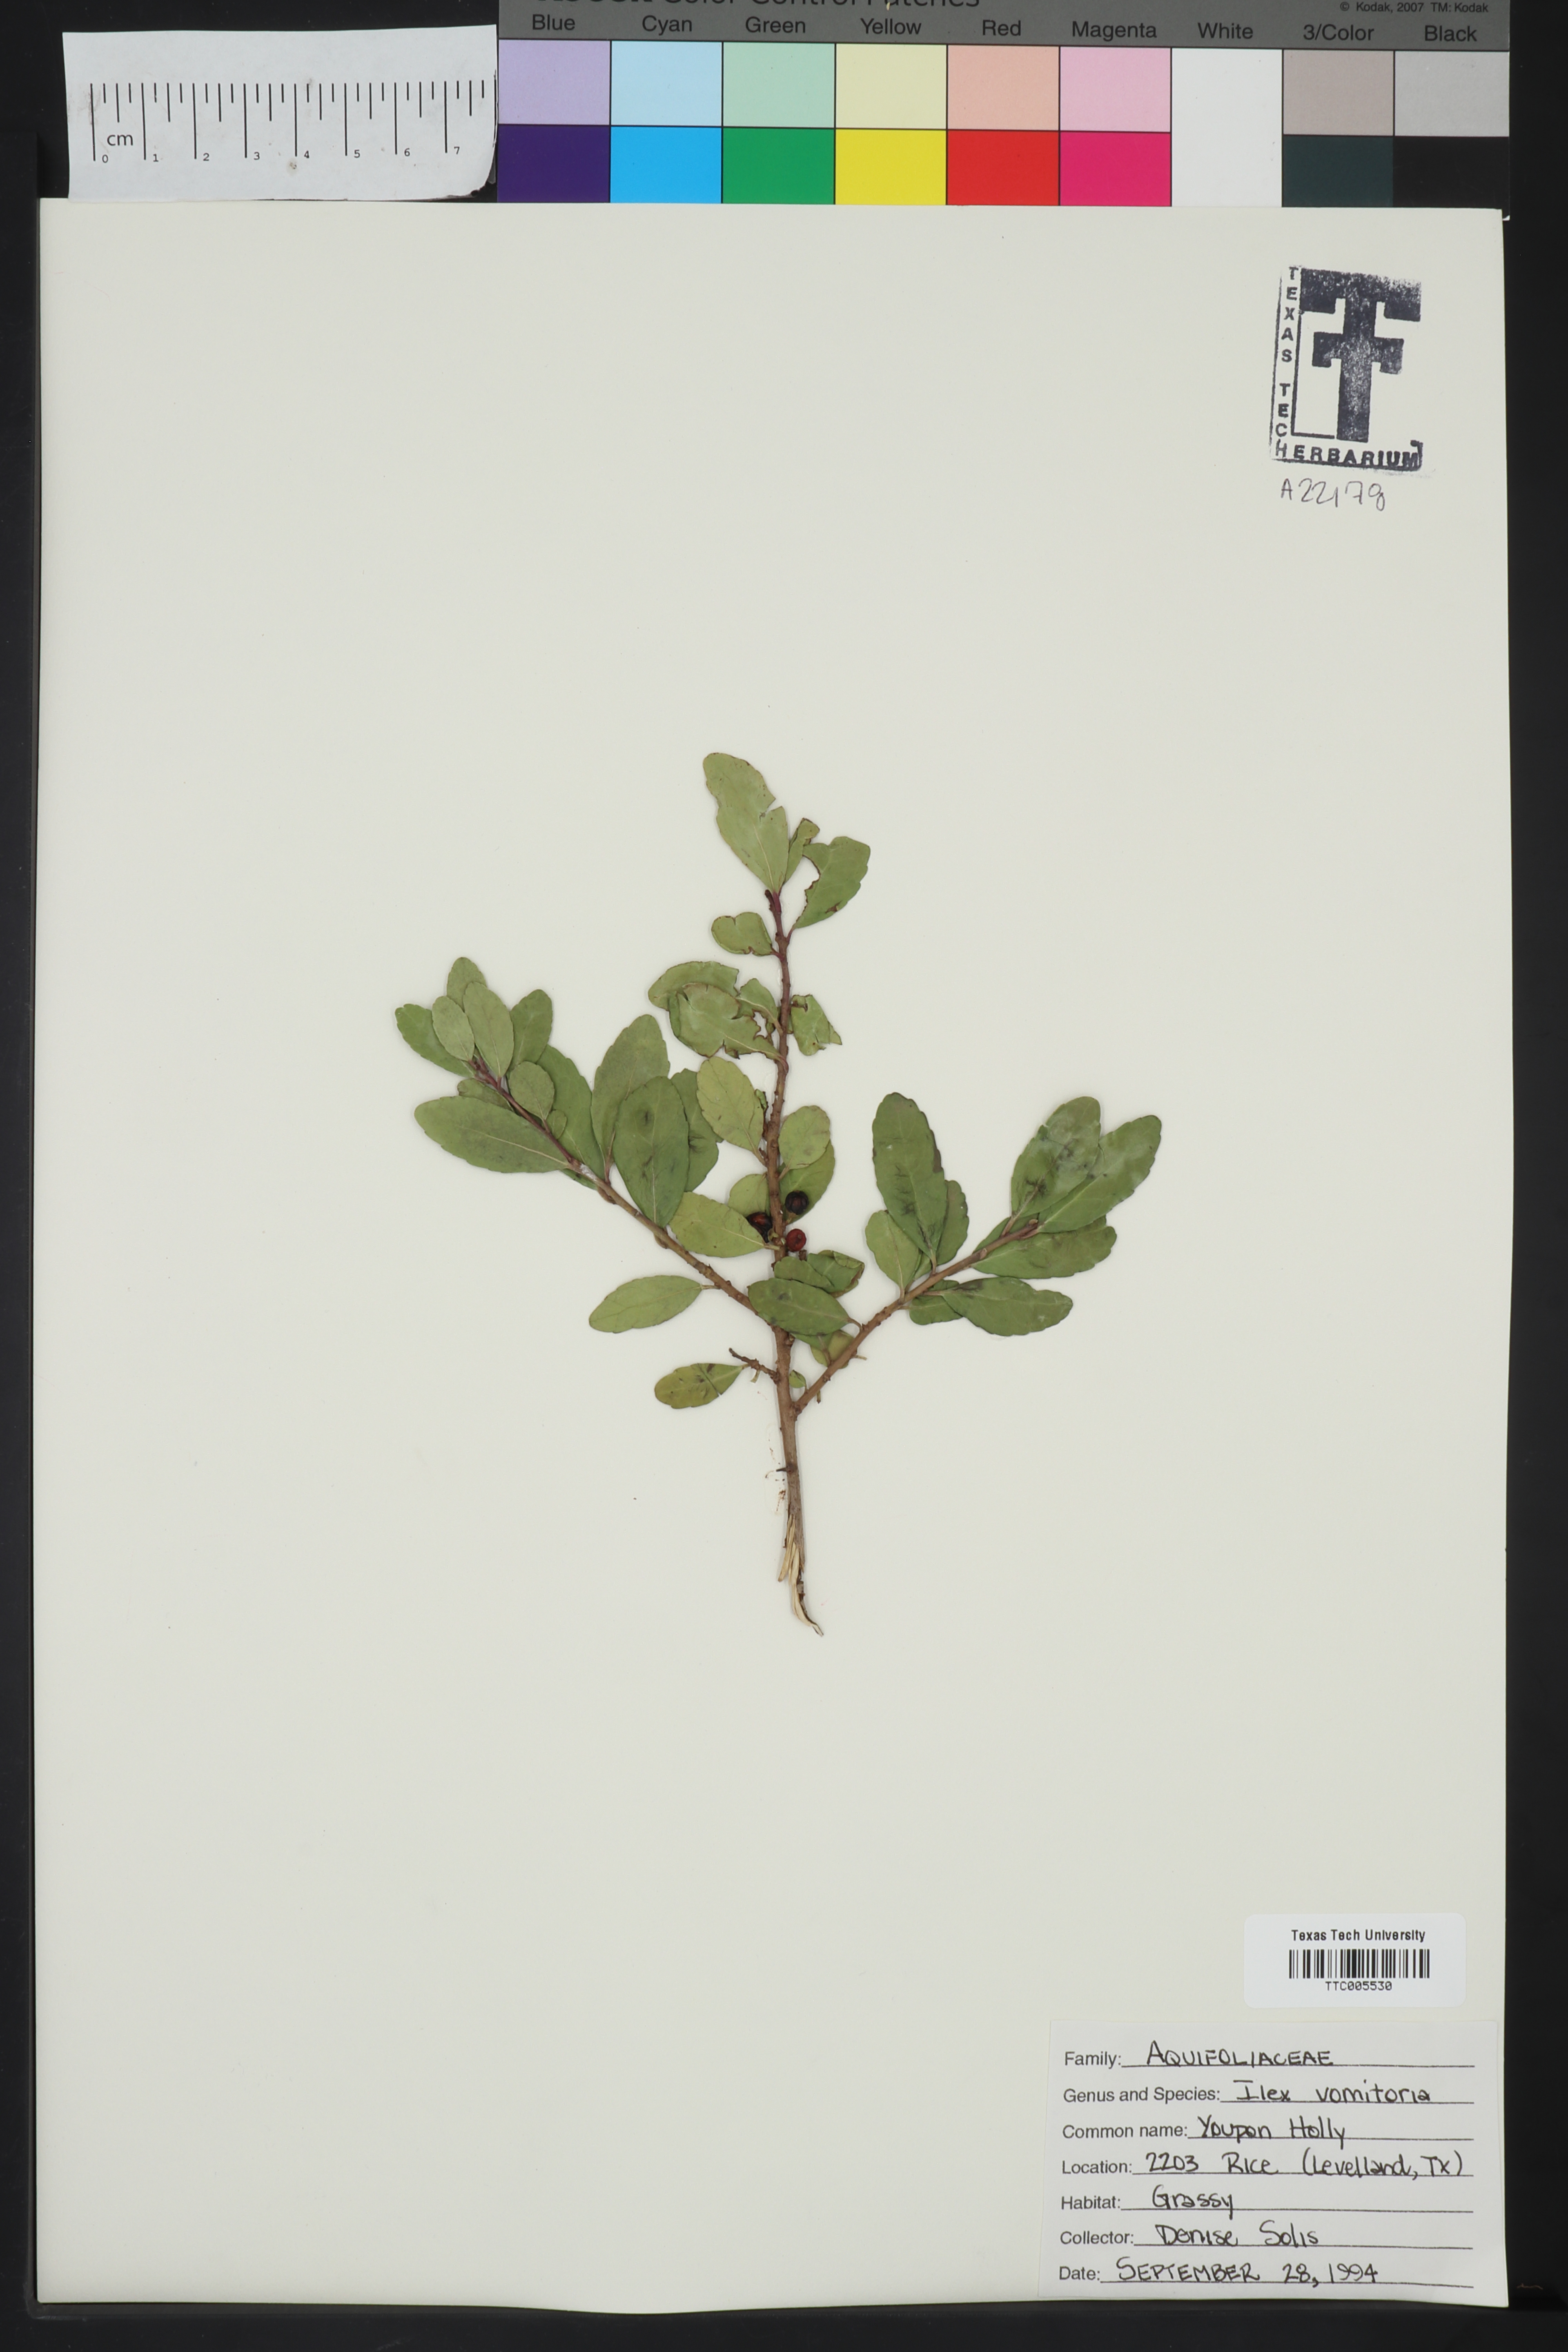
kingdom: Plantae
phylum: Tracheophyta
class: Magnoliopsida
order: Aquifoliales
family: Aquifoliaceae
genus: Ilex
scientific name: Ilex vomitoria
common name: Yaupon holly
